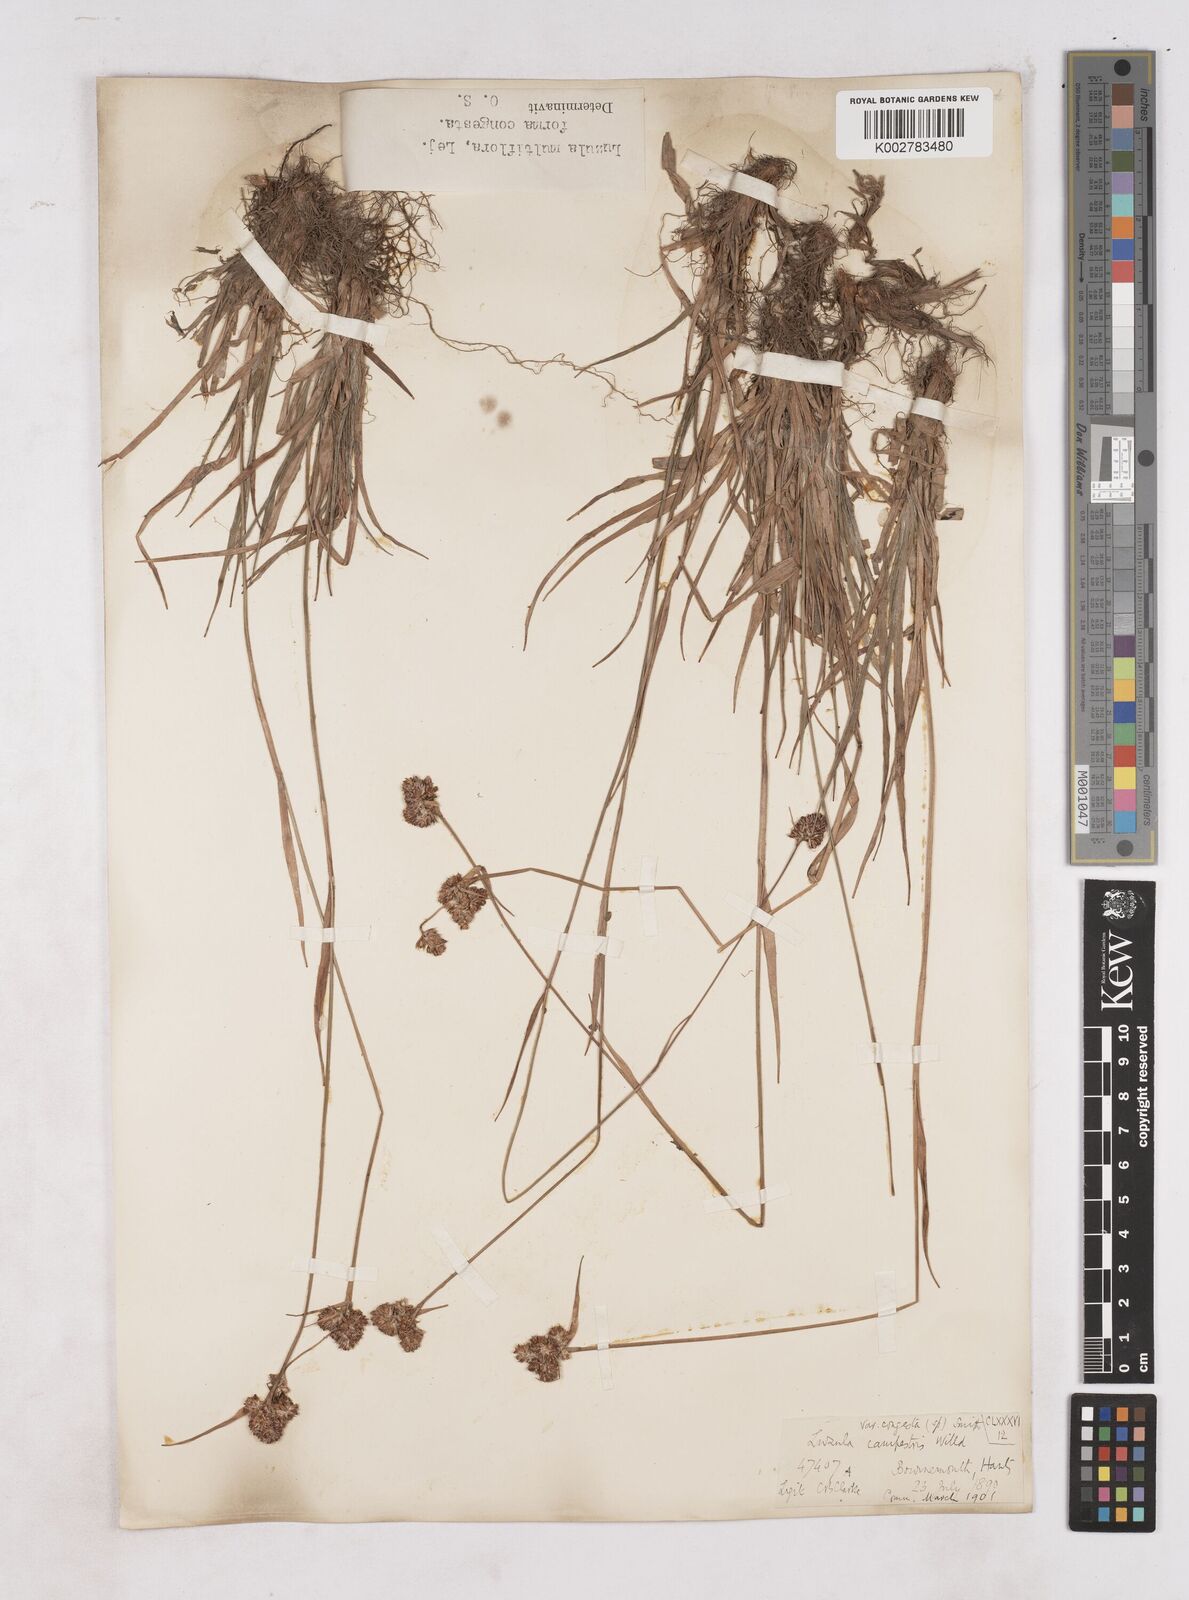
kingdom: Plantae
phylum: Tracheophyta
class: Liliopsida
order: Poales
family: Juncaceae
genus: Luzula
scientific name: Luzula campestris
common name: Field wood-rush
